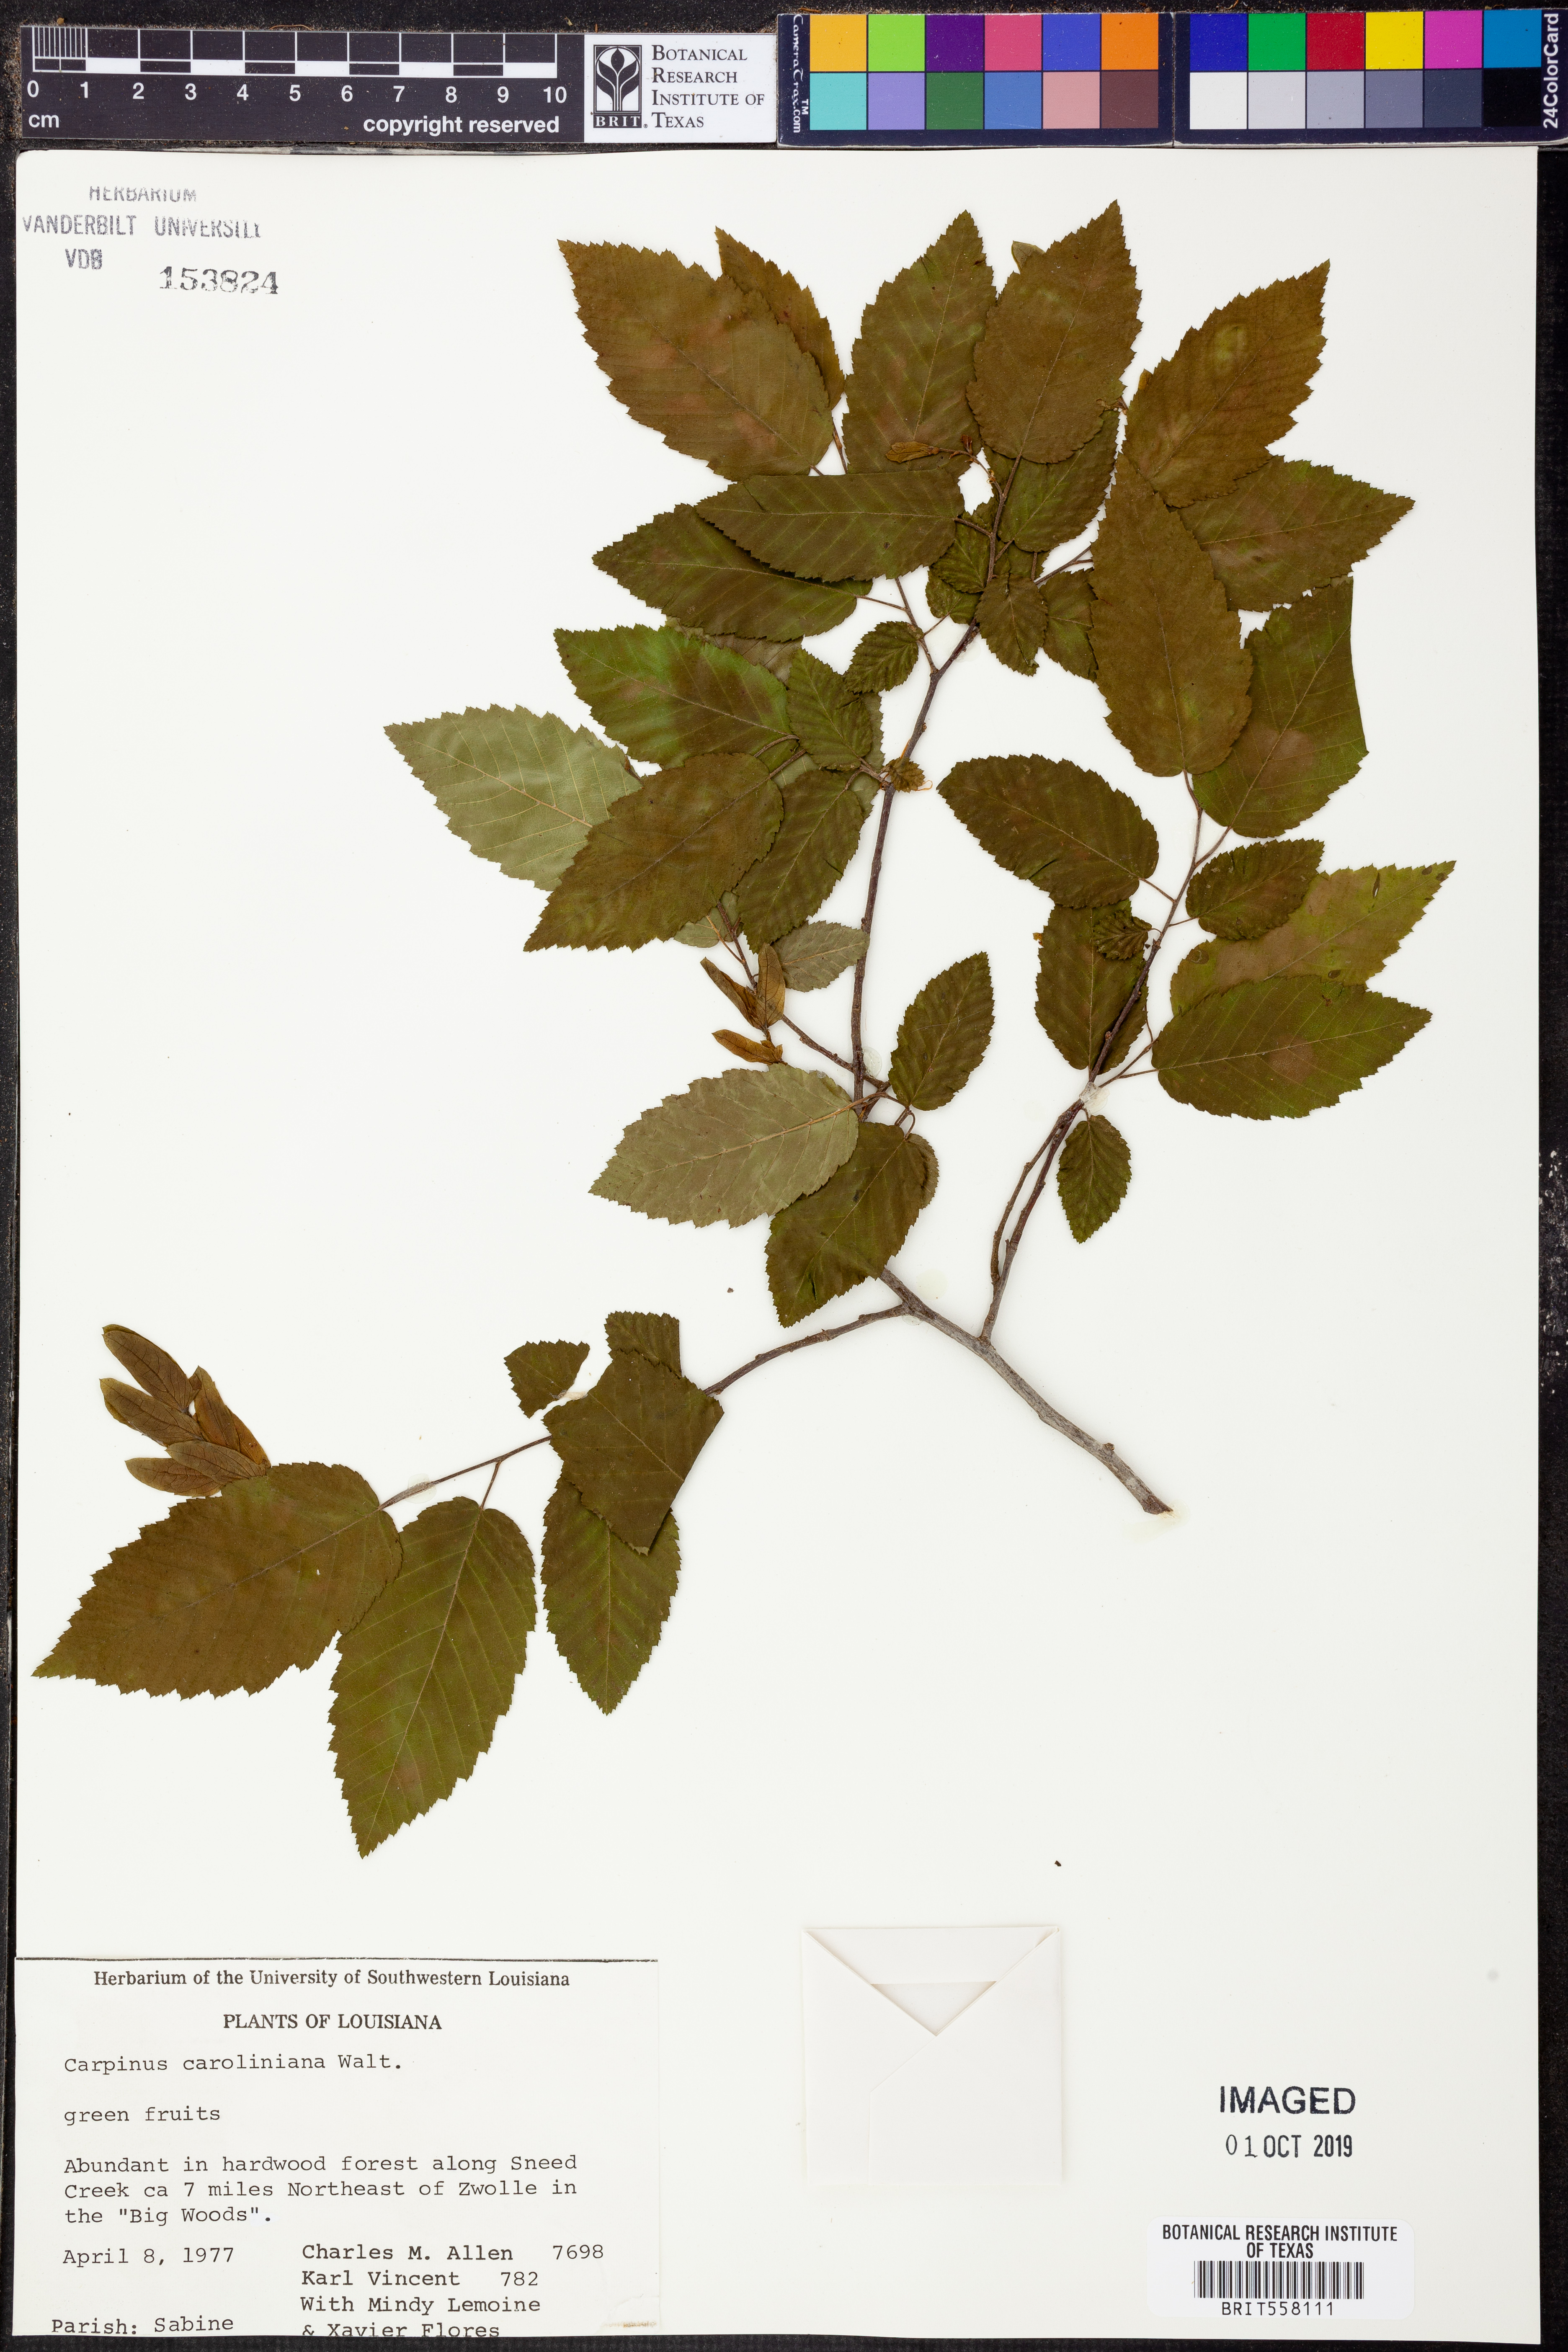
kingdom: Plantae
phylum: Tracheophyta
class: Magnoliopsida
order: Fagales
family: Betulaceae
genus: Carpinus
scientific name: Carpinus caroliniana
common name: American hornbeam
